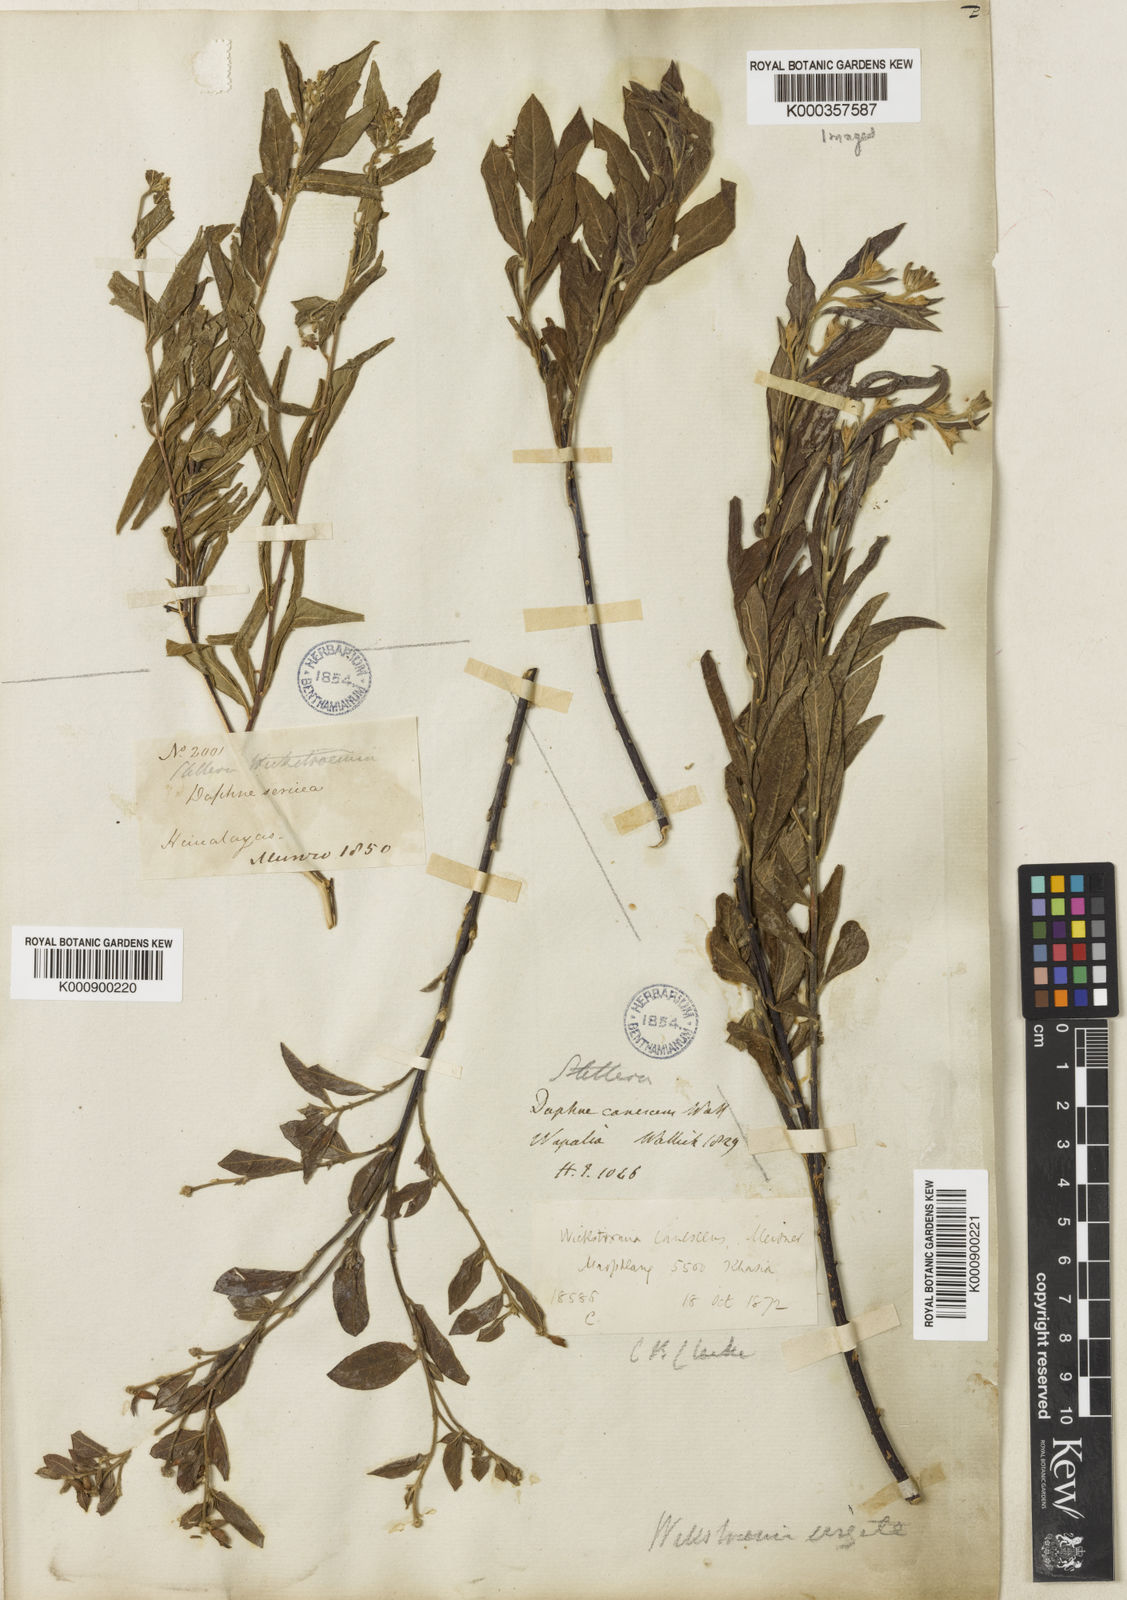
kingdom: Plantae
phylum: Tracheophyta
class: Magnoliopsida
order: Malvales
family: Thymelaeaceae
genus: Wikstroemia
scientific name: Wikstroemia canescens
